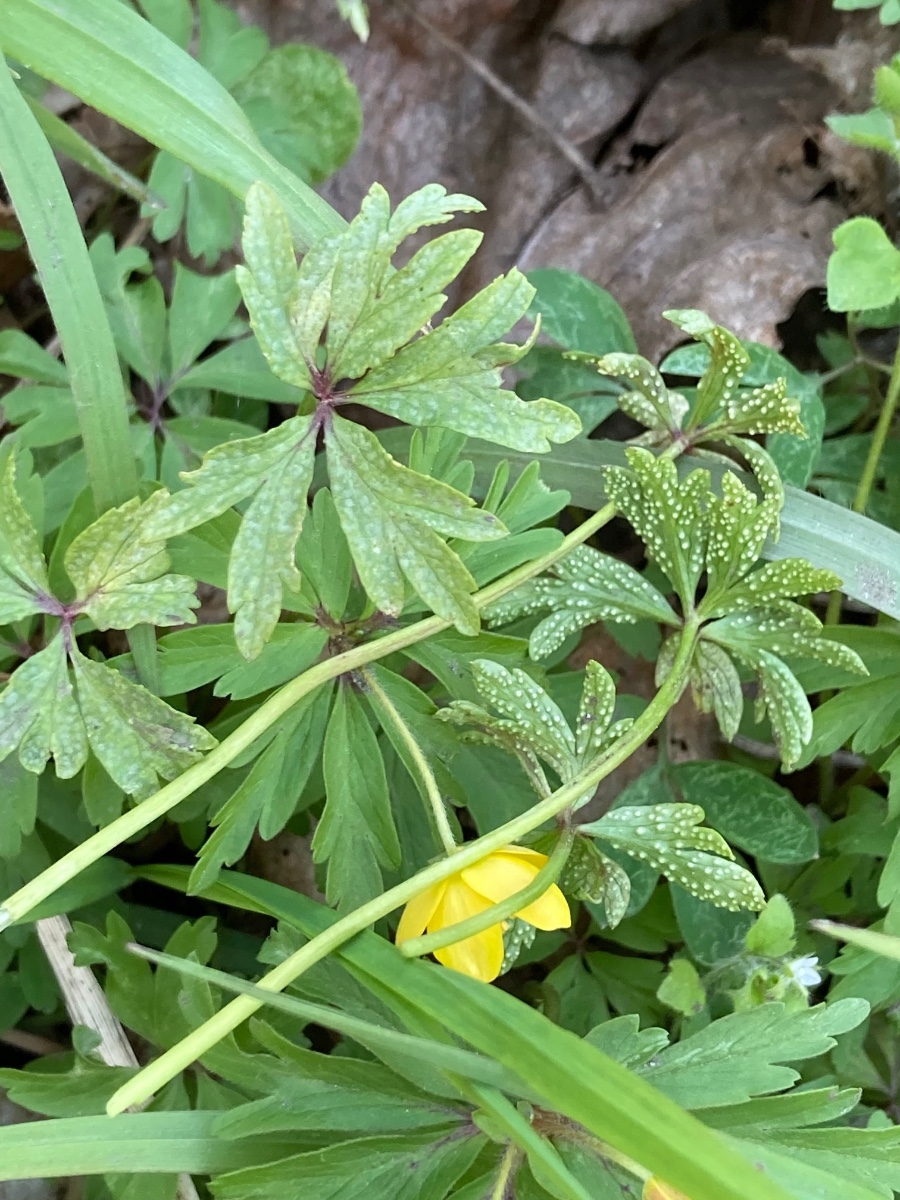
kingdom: Fungi
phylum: Basidiomycota
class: Pucciniomycetes
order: Pucciniales
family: Ochropsoraceae
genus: Ochropsora
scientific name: Ochropsora ariae
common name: anemone-okkerpletrust
